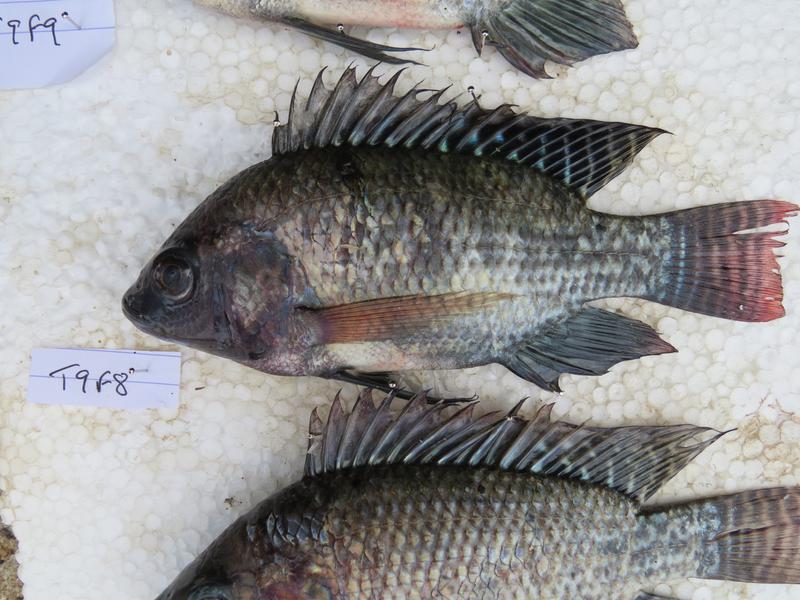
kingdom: Animalia
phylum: Chordata
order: Perciformes
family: Cichlidae
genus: Oreochromis
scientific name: Oreochromis niloticus
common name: Nile tilapia
